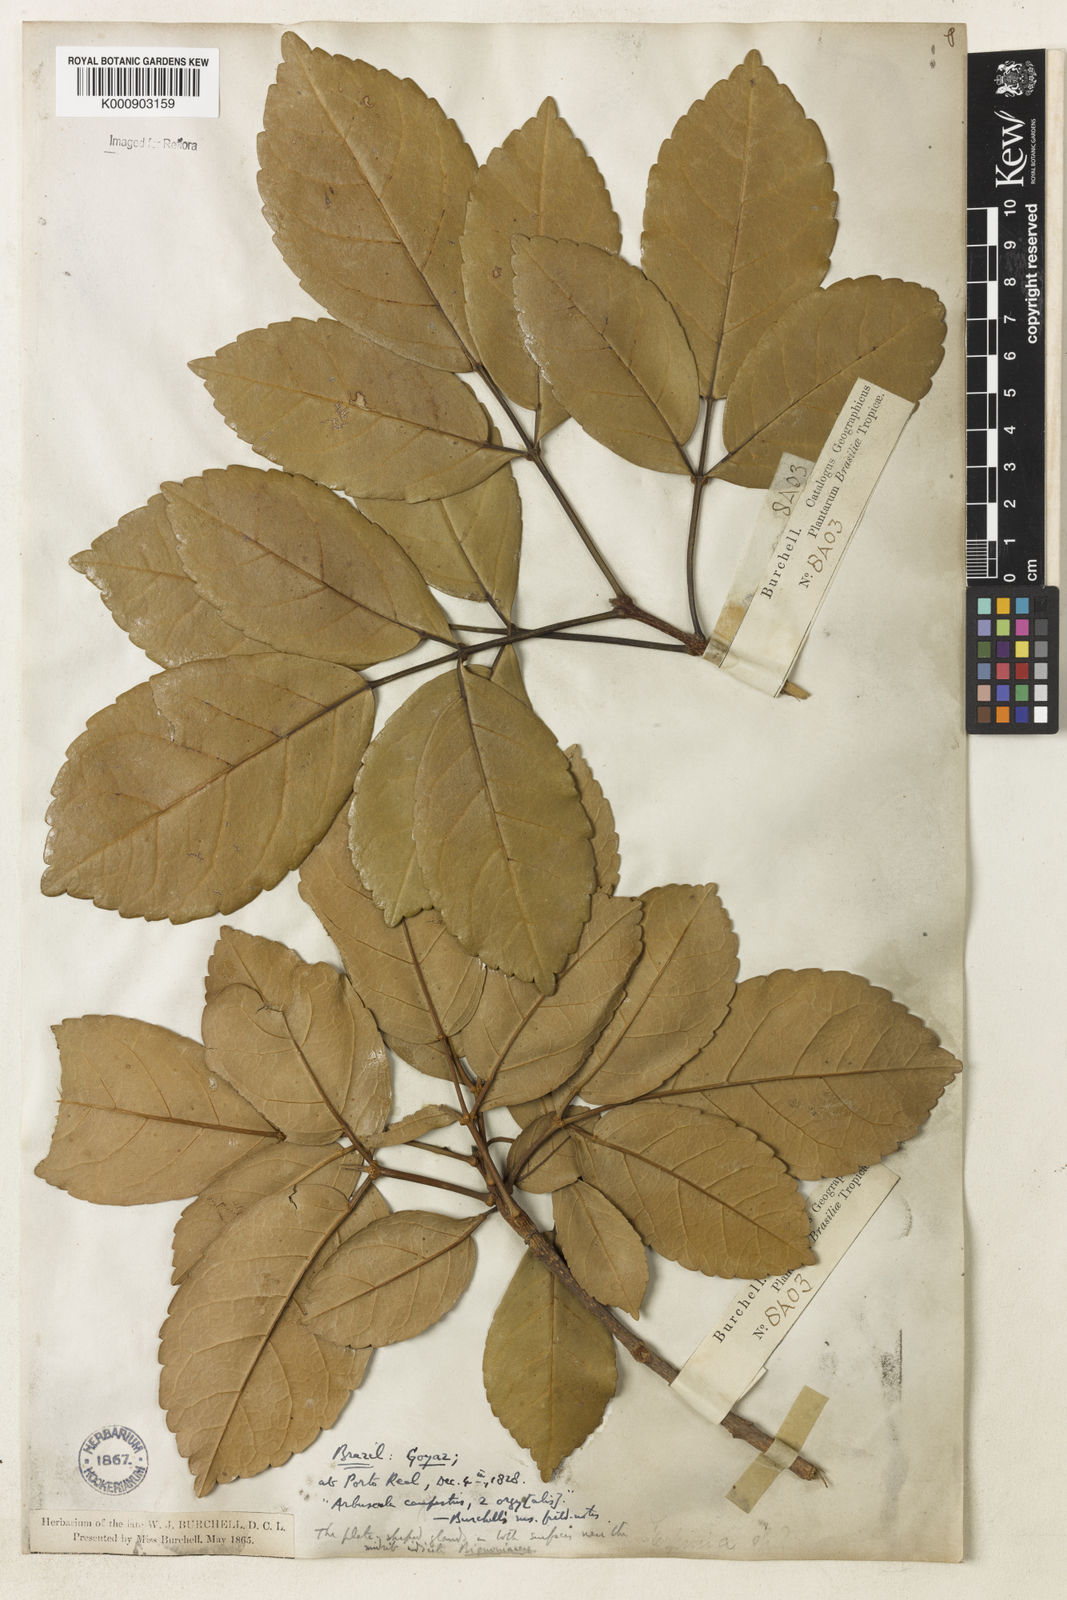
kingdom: Plantae
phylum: Tracheophyta
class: Magnoliopsida
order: Lamiales
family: Bignoniaceae
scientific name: Bignoniaceae
